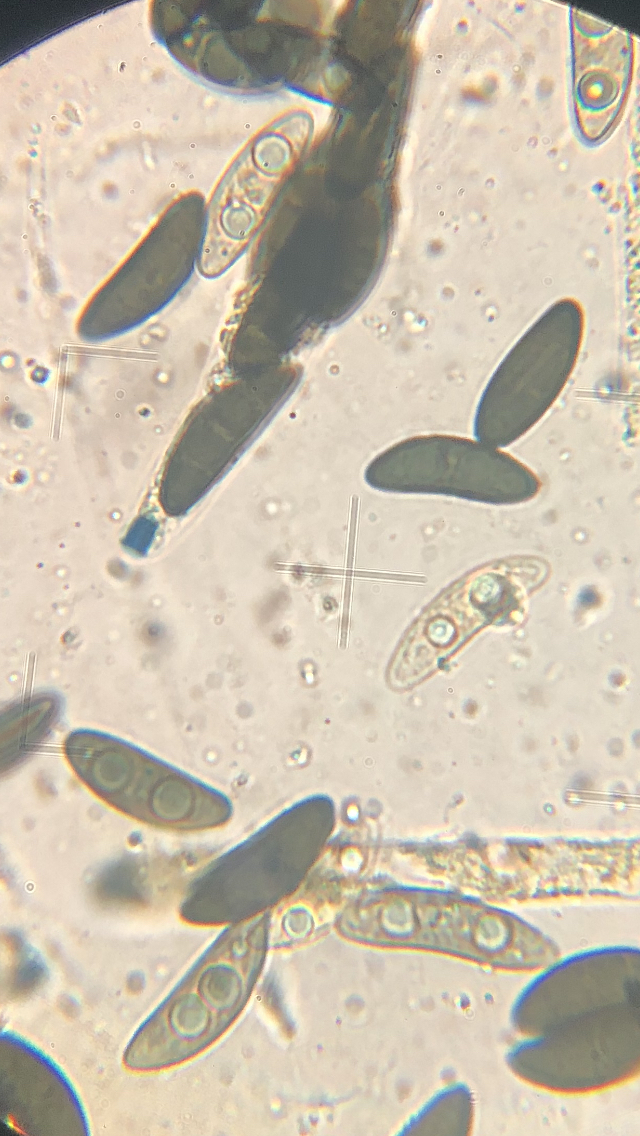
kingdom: Fungi
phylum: Ascomycota
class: Sordariomycetes
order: Xylariales
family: Xylariaceae
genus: Xylaria
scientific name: Xylaria polymorpha
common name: kølle-stødsvamp
